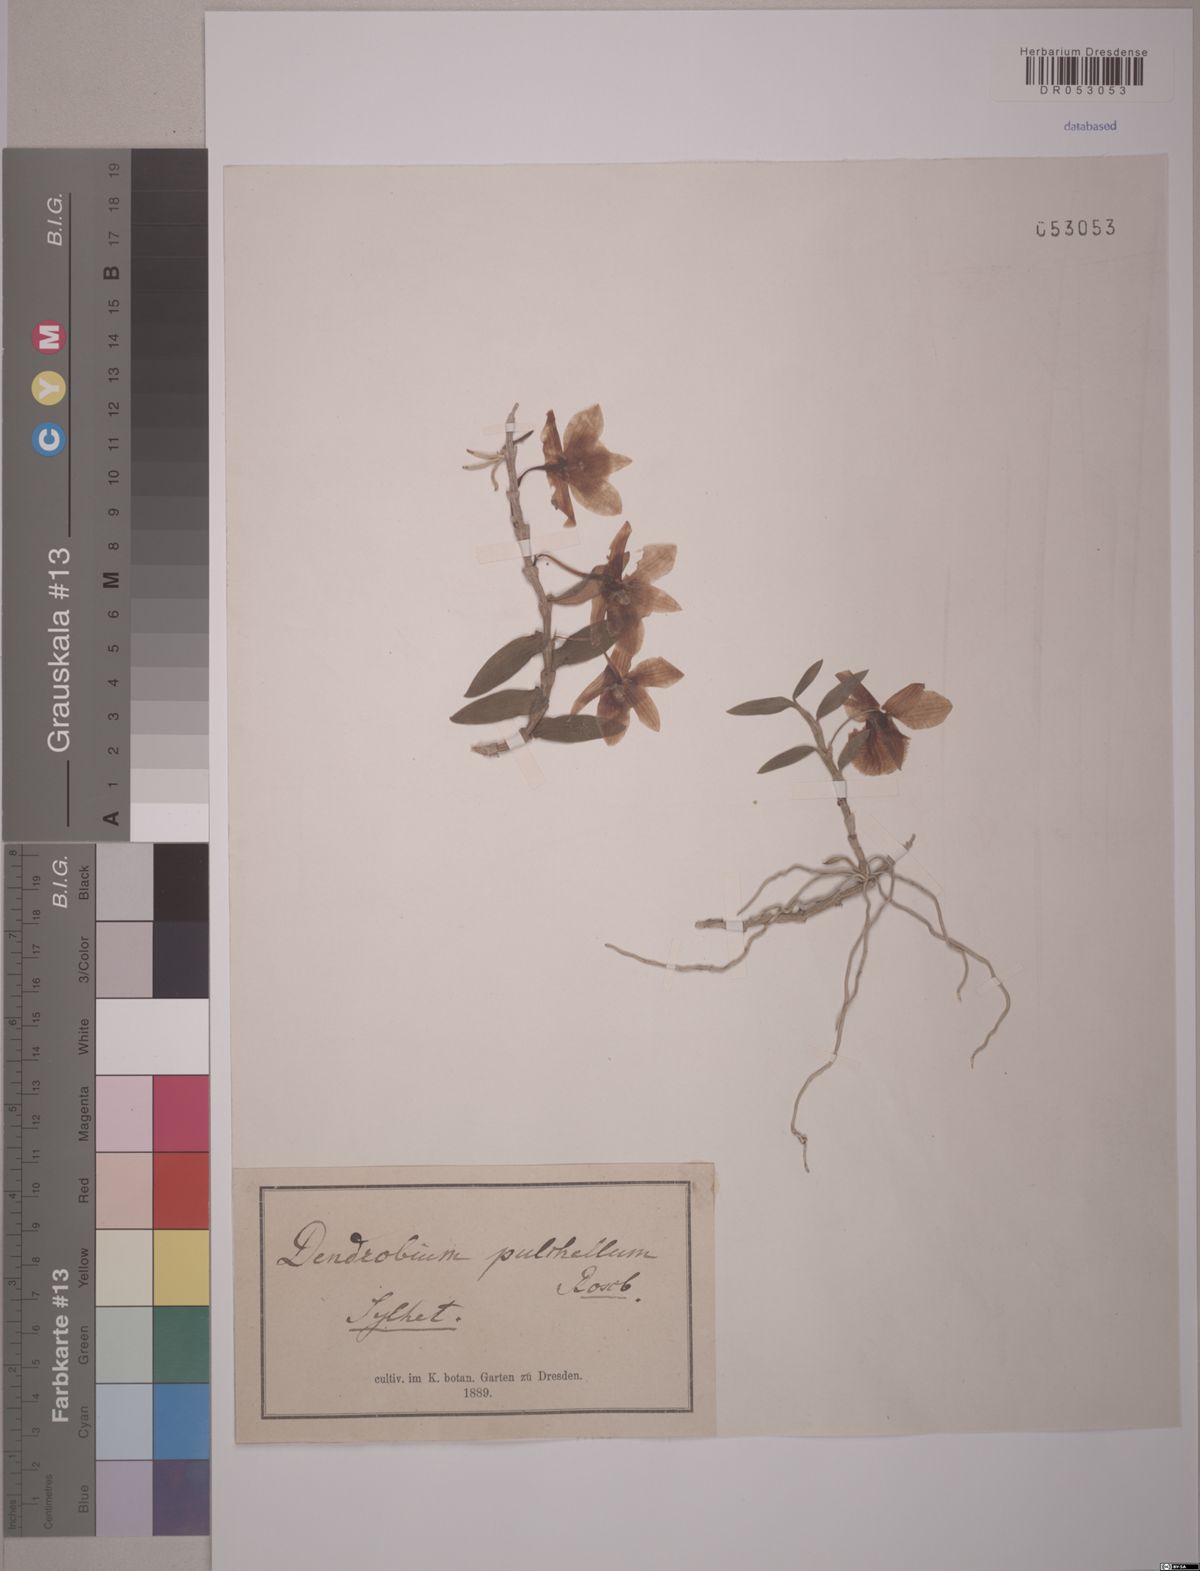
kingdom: Plantae
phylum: Tracheophyta
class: Liliopsida
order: Asparagales
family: Orchidaceae
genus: Dendrobium
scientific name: Dendrobium pulchellum
